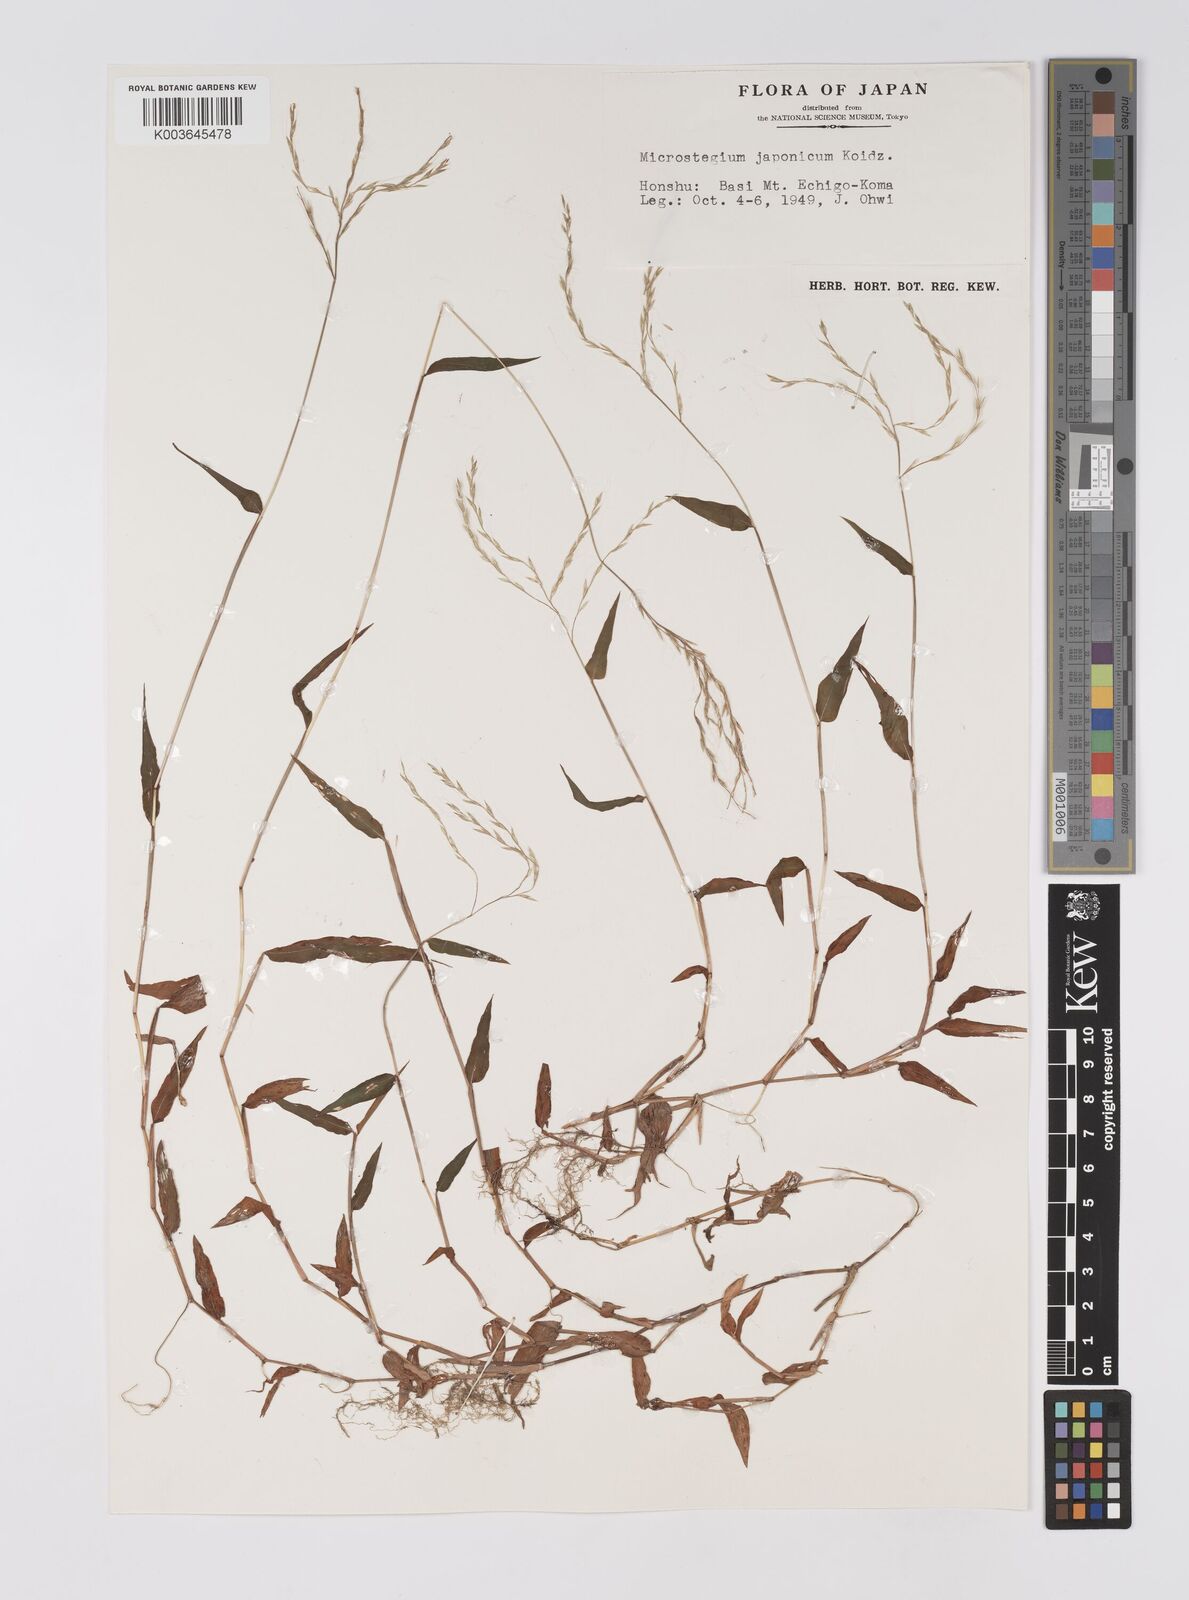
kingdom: Plantae
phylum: Tracheophyta
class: Liliopsida
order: Poales
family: Poaceae
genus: Microstegium
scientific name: Microstegium japonicum
